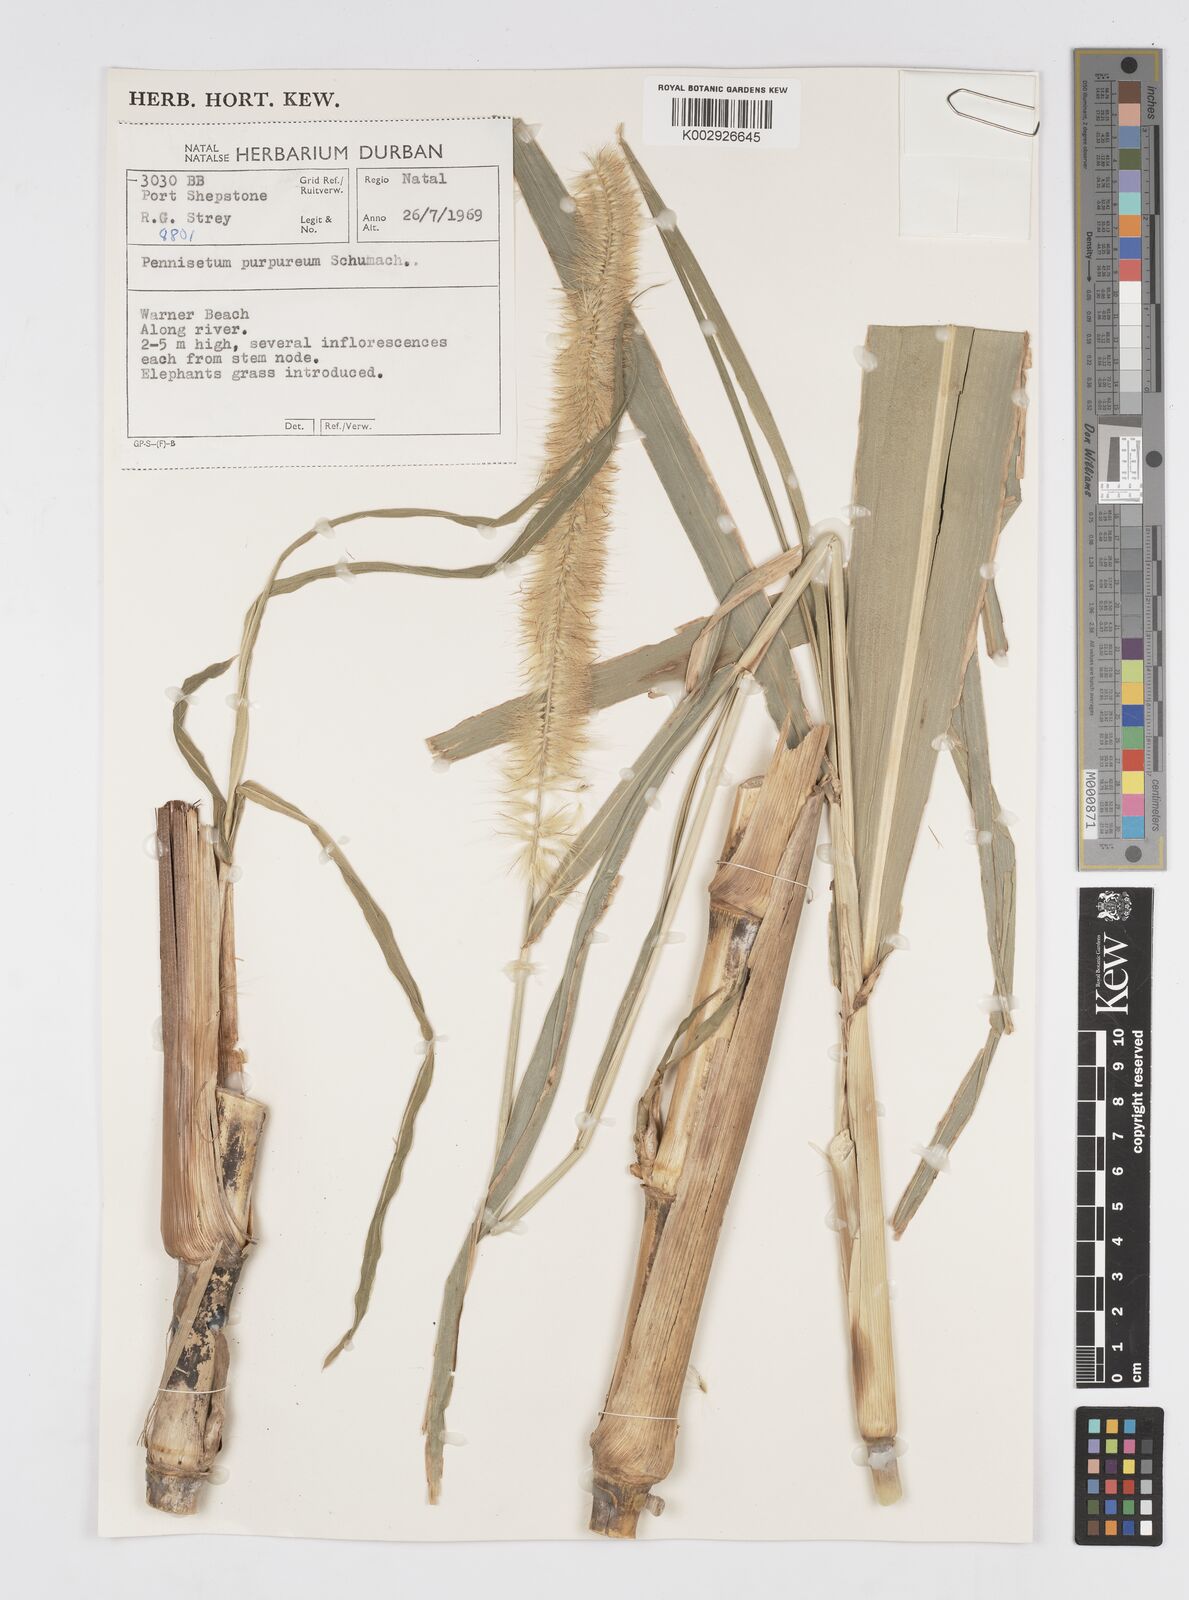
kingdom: Plantae
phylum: Tracheophyta
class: Liliopsida
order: Poales
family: Poaceae
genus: Cenchrus
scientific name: Cenchrus purpureus
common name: Elephant grass
